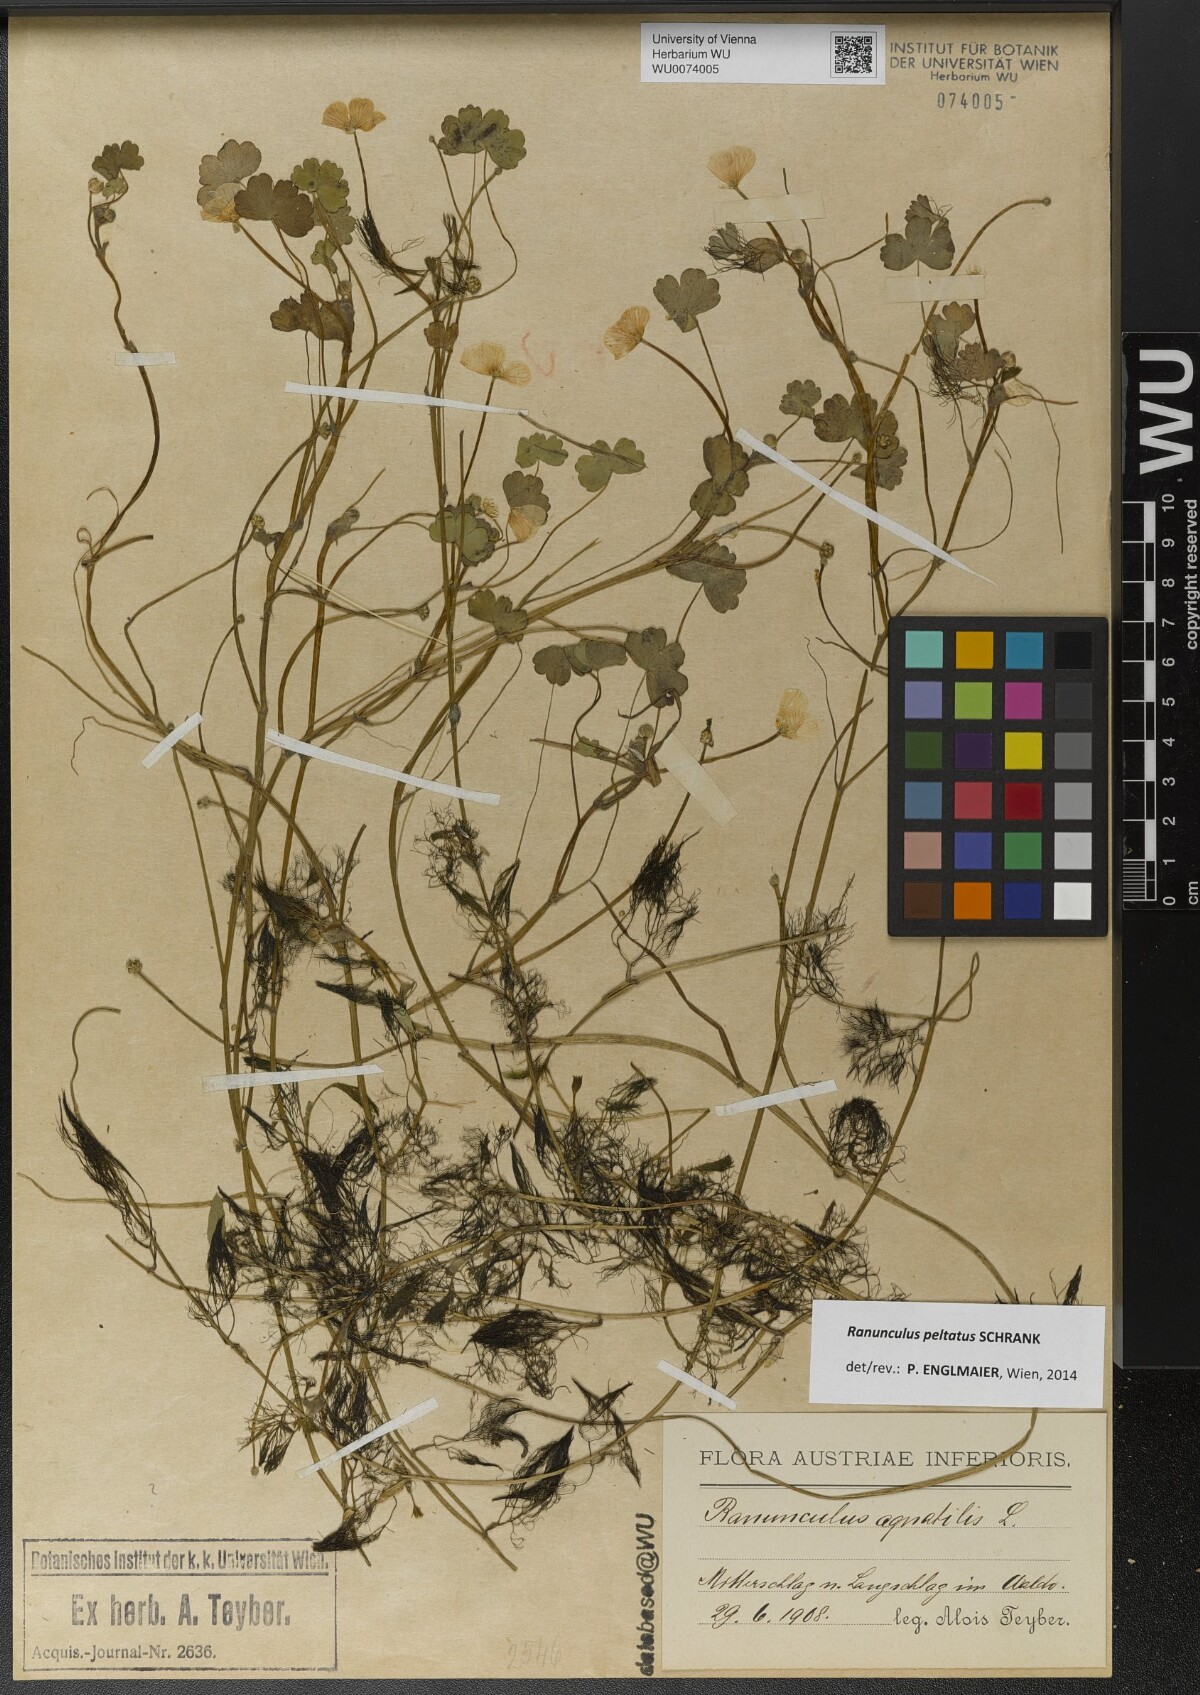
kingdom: Plantae
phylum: Tracheophyta
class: Magnoliopsida
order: Ranunculales
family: Ranunculaceae
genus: Ranunculus
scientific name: Ranunculus peltatus
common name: Pond water-crowfoot
